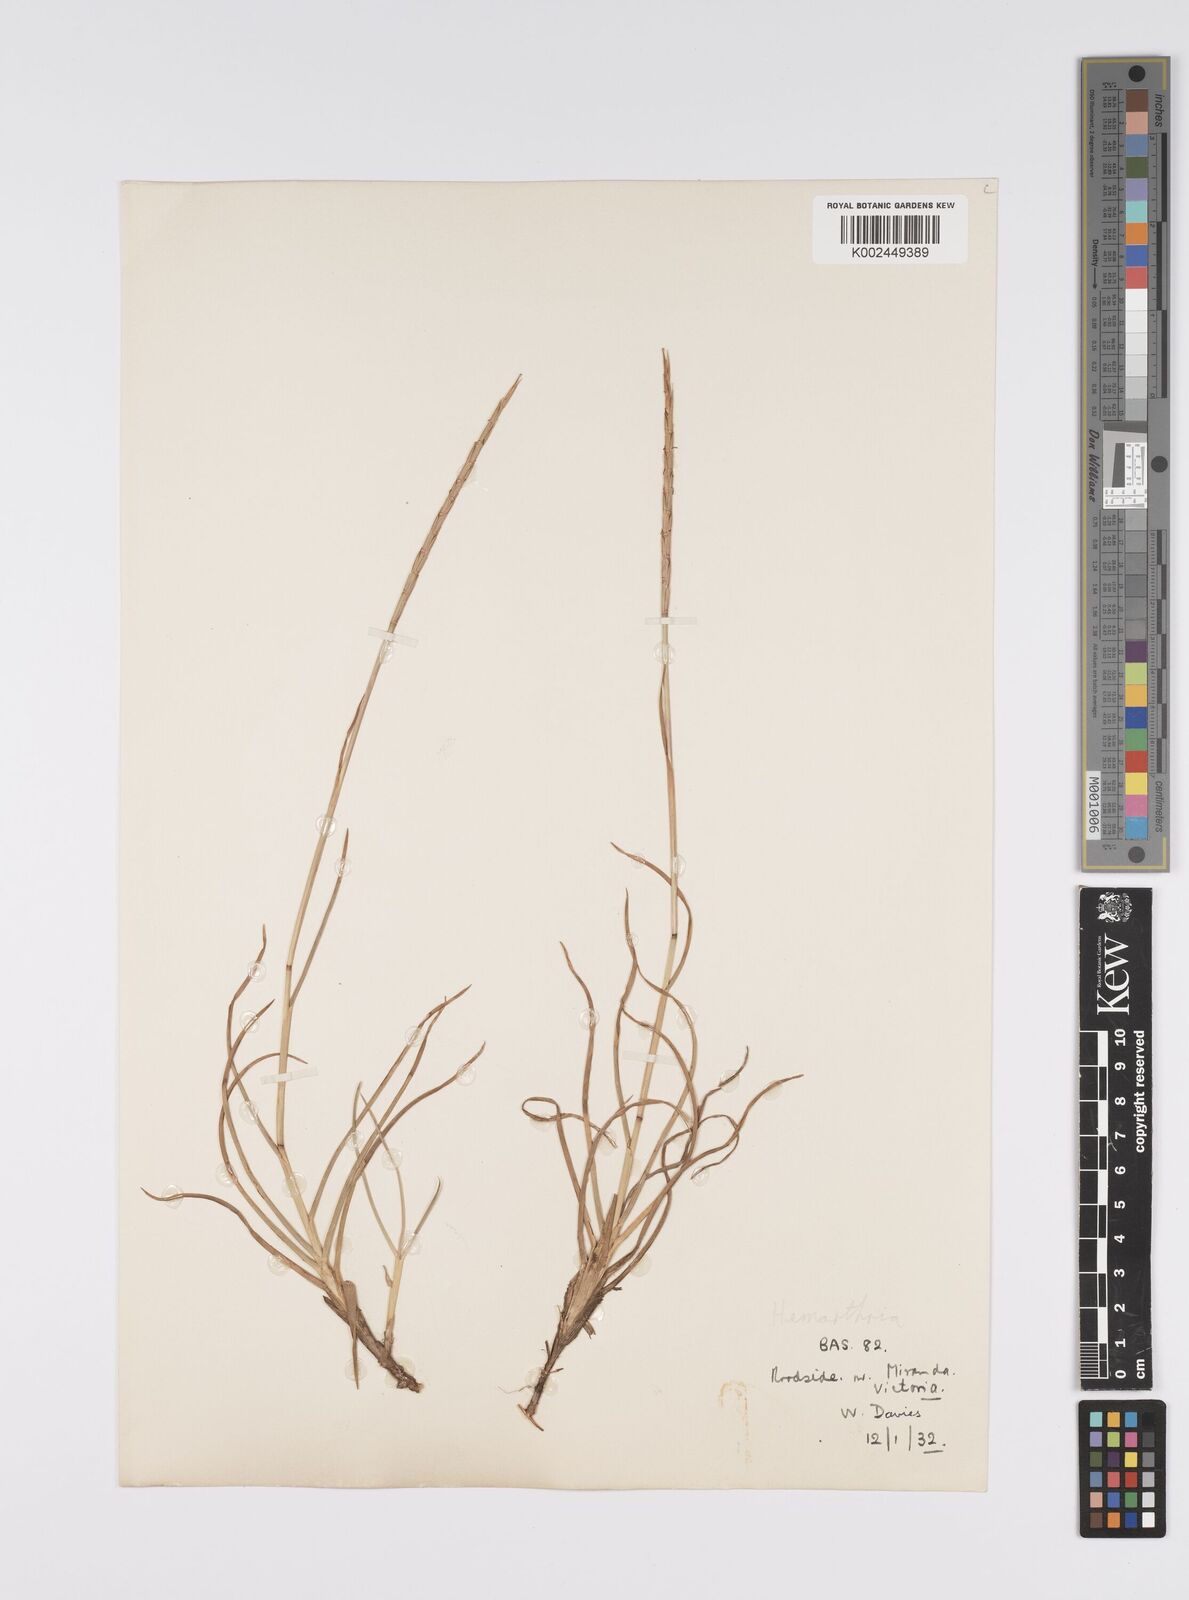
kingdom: Plantae
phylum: Tracheophyta
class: Liliopsida
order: Poales
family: Poaceae
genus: Hemarthria
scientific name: Hemarthria uncinata
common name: Matgrass
